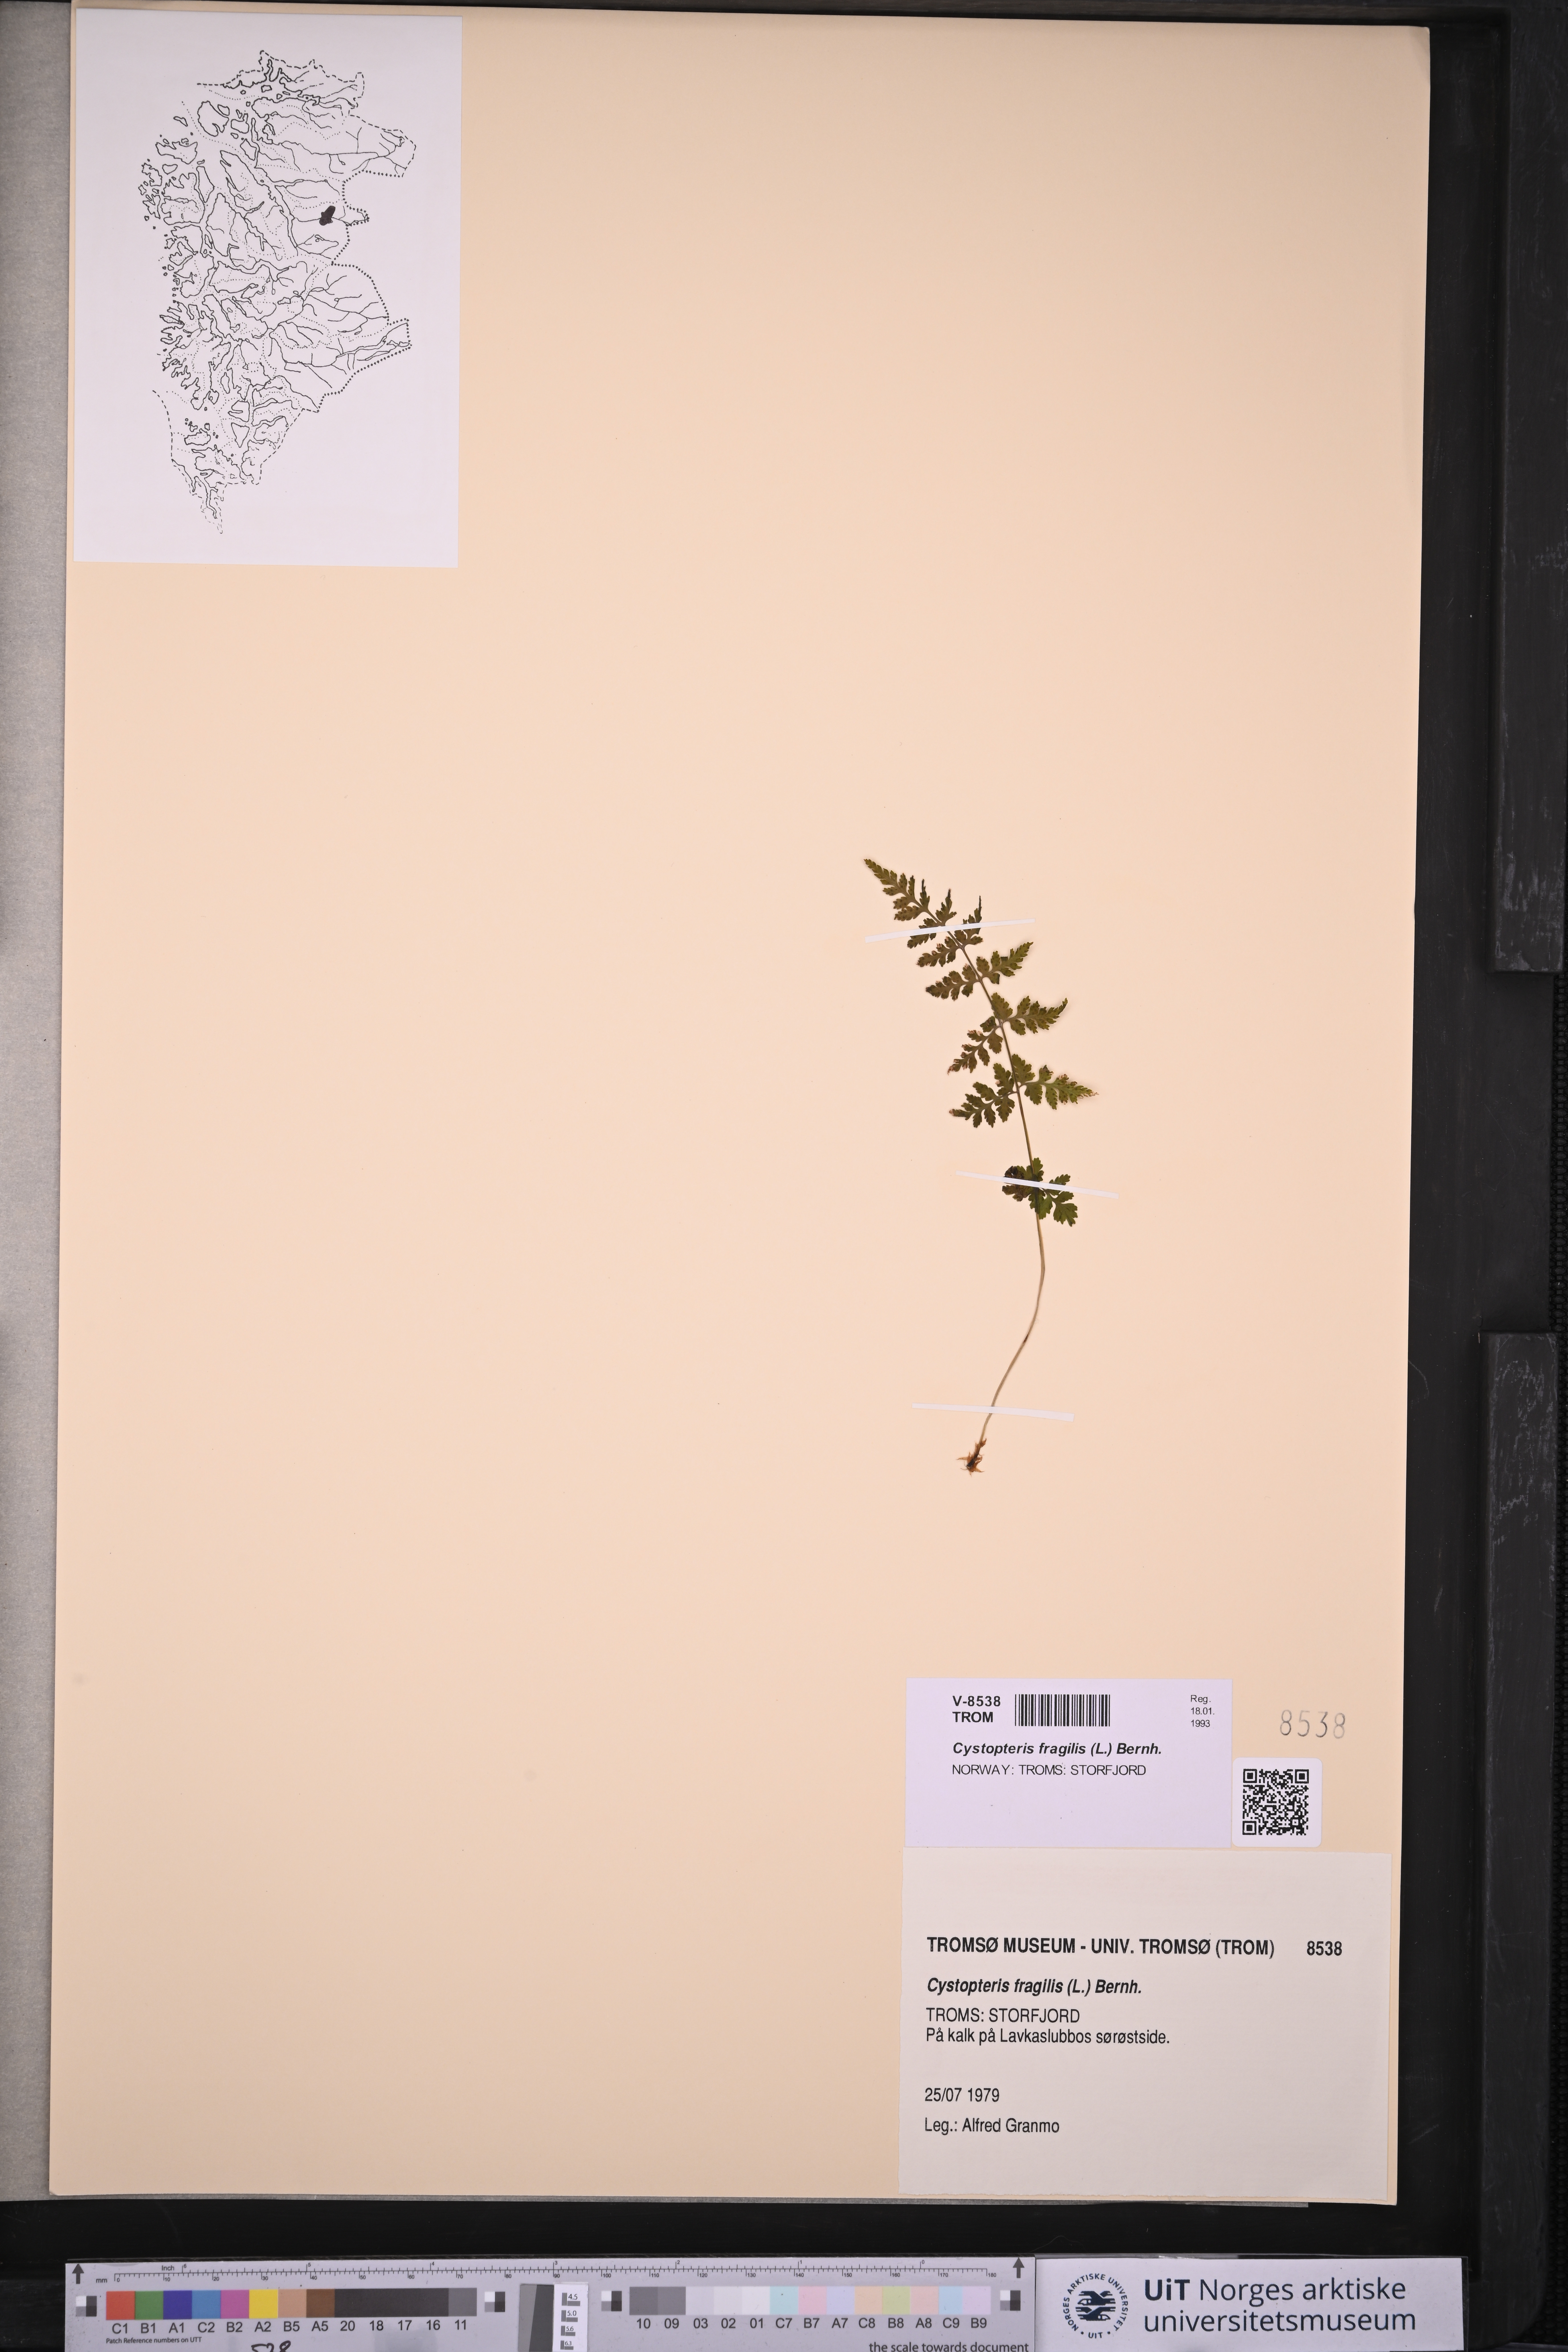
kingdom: Plantae
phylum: Tracheophyta
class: Polypodiopsida
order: Polypodiales
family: Cystopteridaceae
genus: Cystopteris
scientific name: Cystopteris fragilis
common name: Brittle bladder fern
